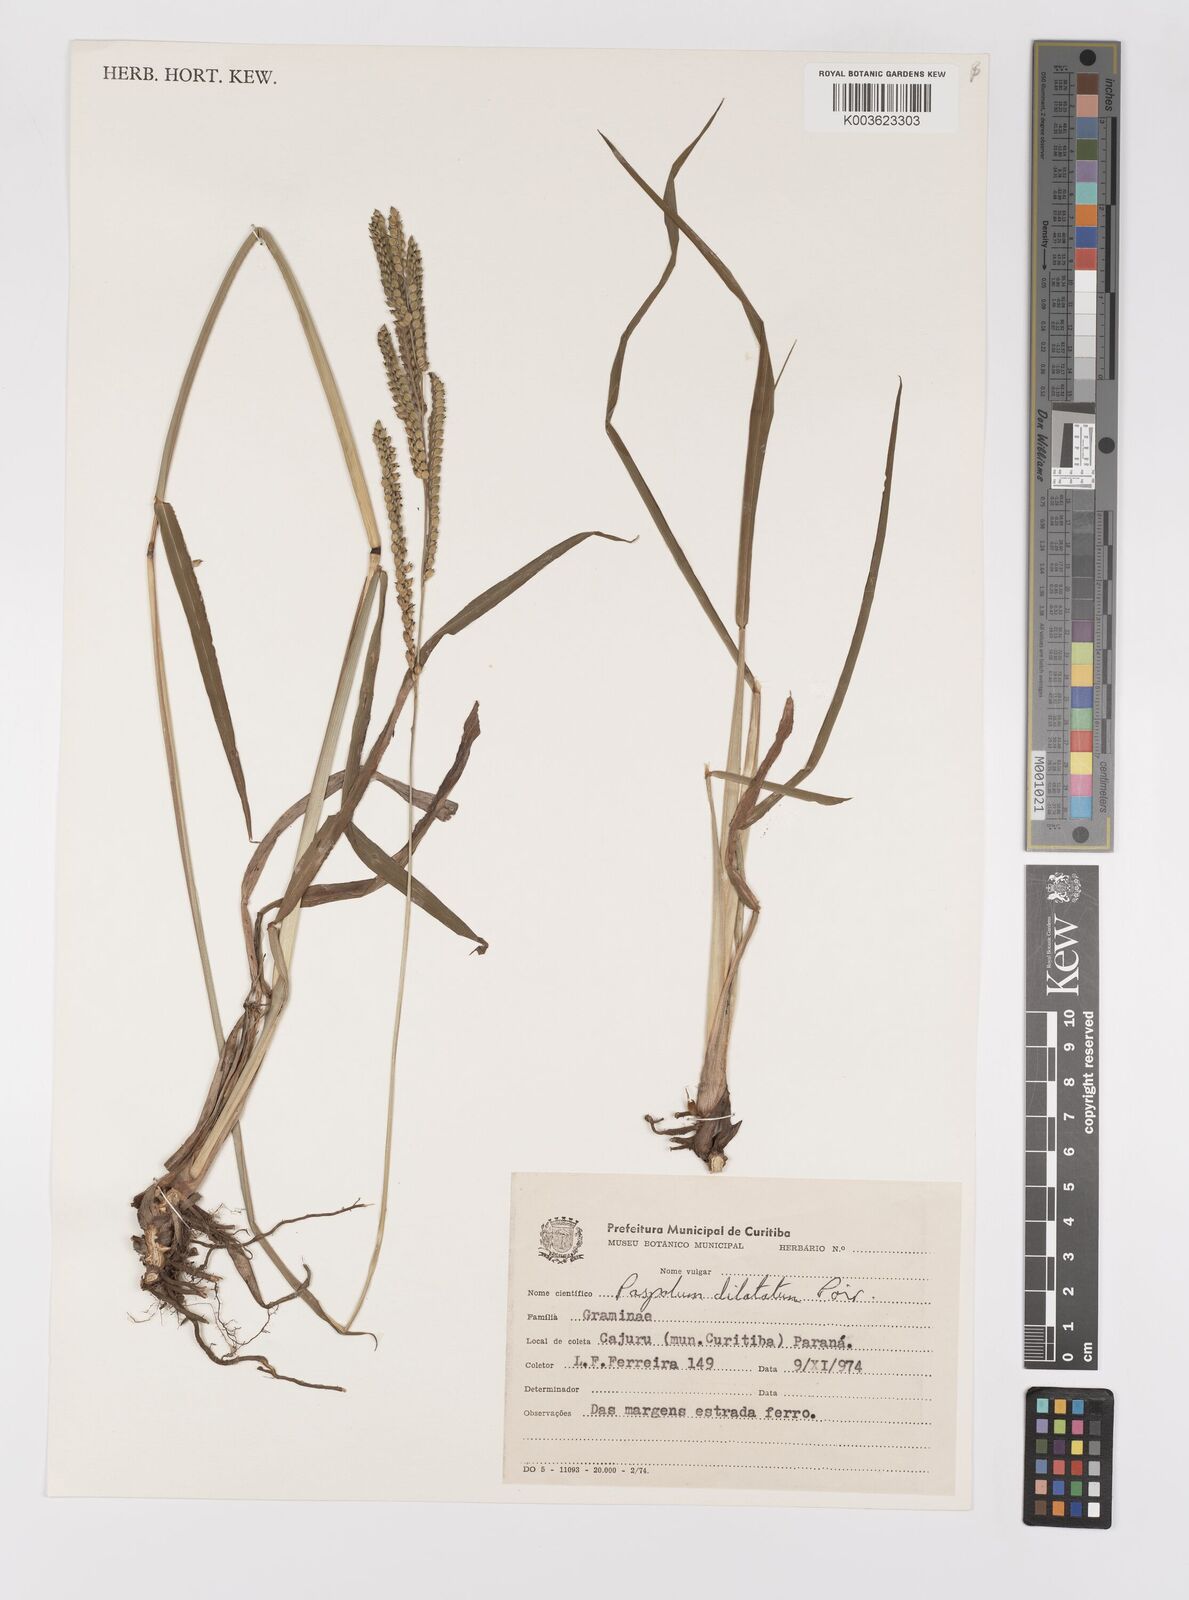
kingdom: Plantae
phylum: Tracheophyta
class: Liliopsida
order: Poales
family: Poaceae
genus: Paspalum
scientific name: Paspalum dilatatum
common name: Dallisgrass
